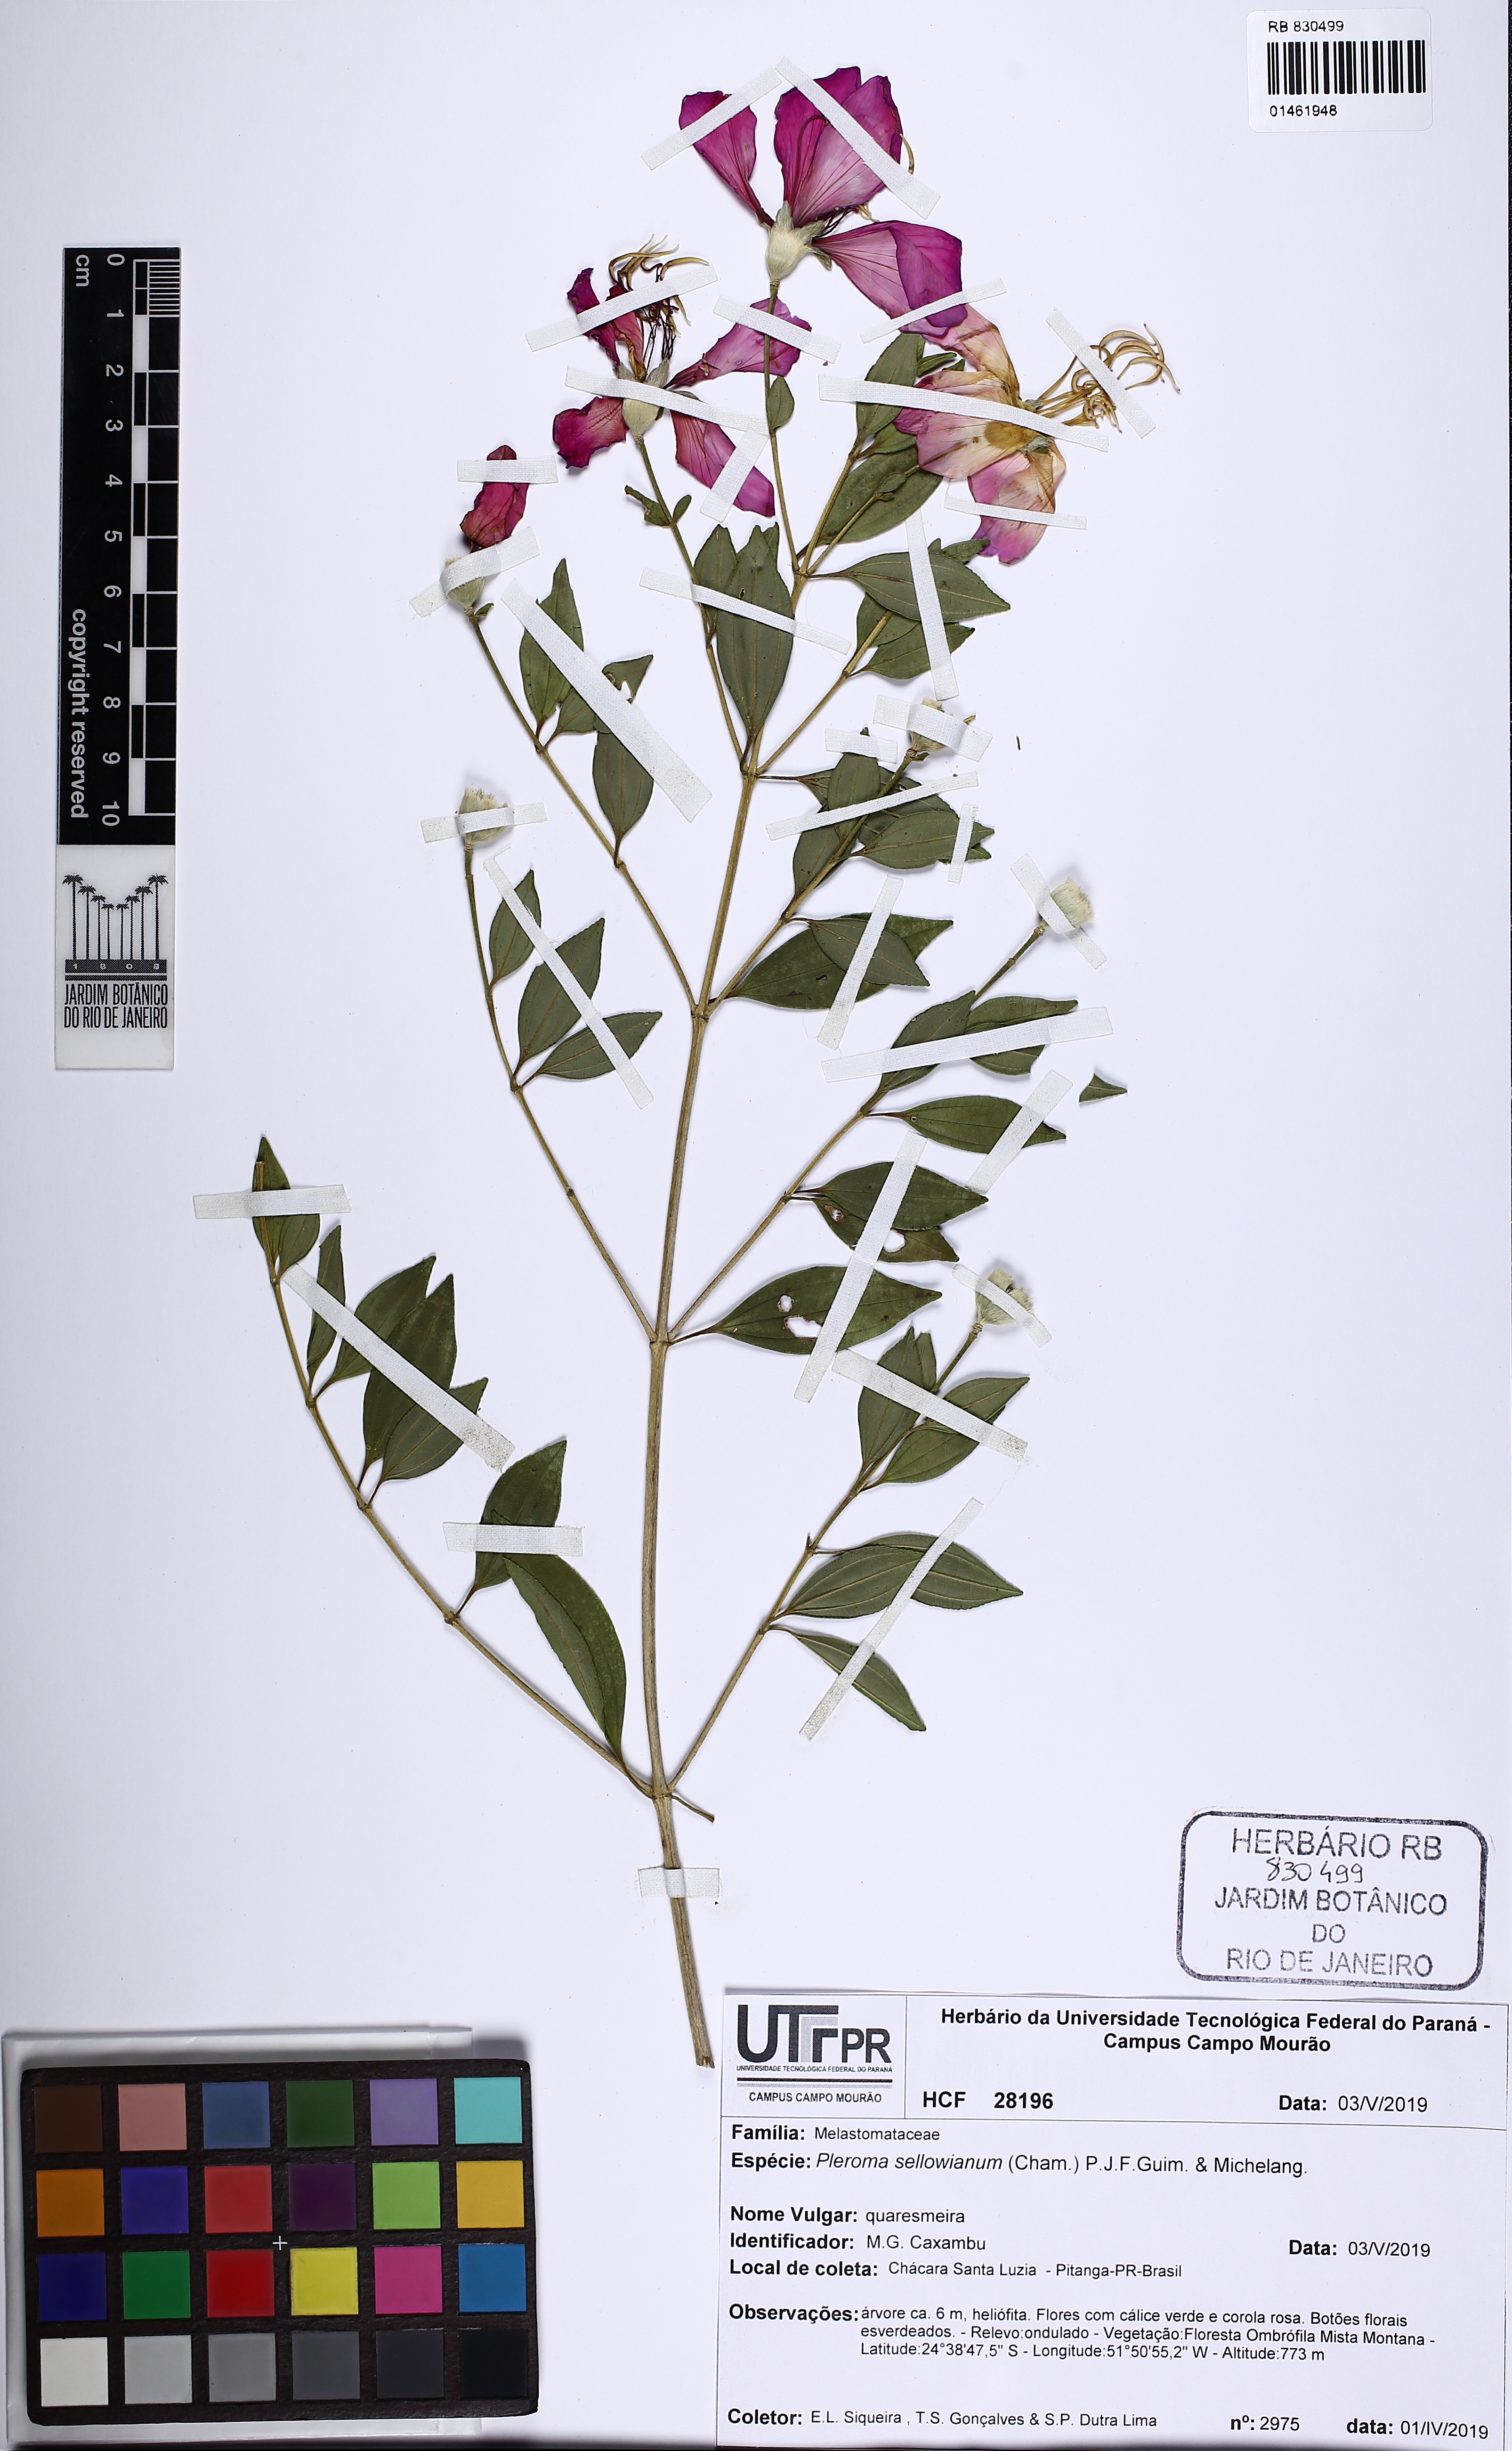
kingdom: Plantae
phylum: Tracheophyta
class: Magnoliopsida
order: Myrtales
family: Melastomataceae
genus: Pleroma
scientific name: Pleroma sellowianum
